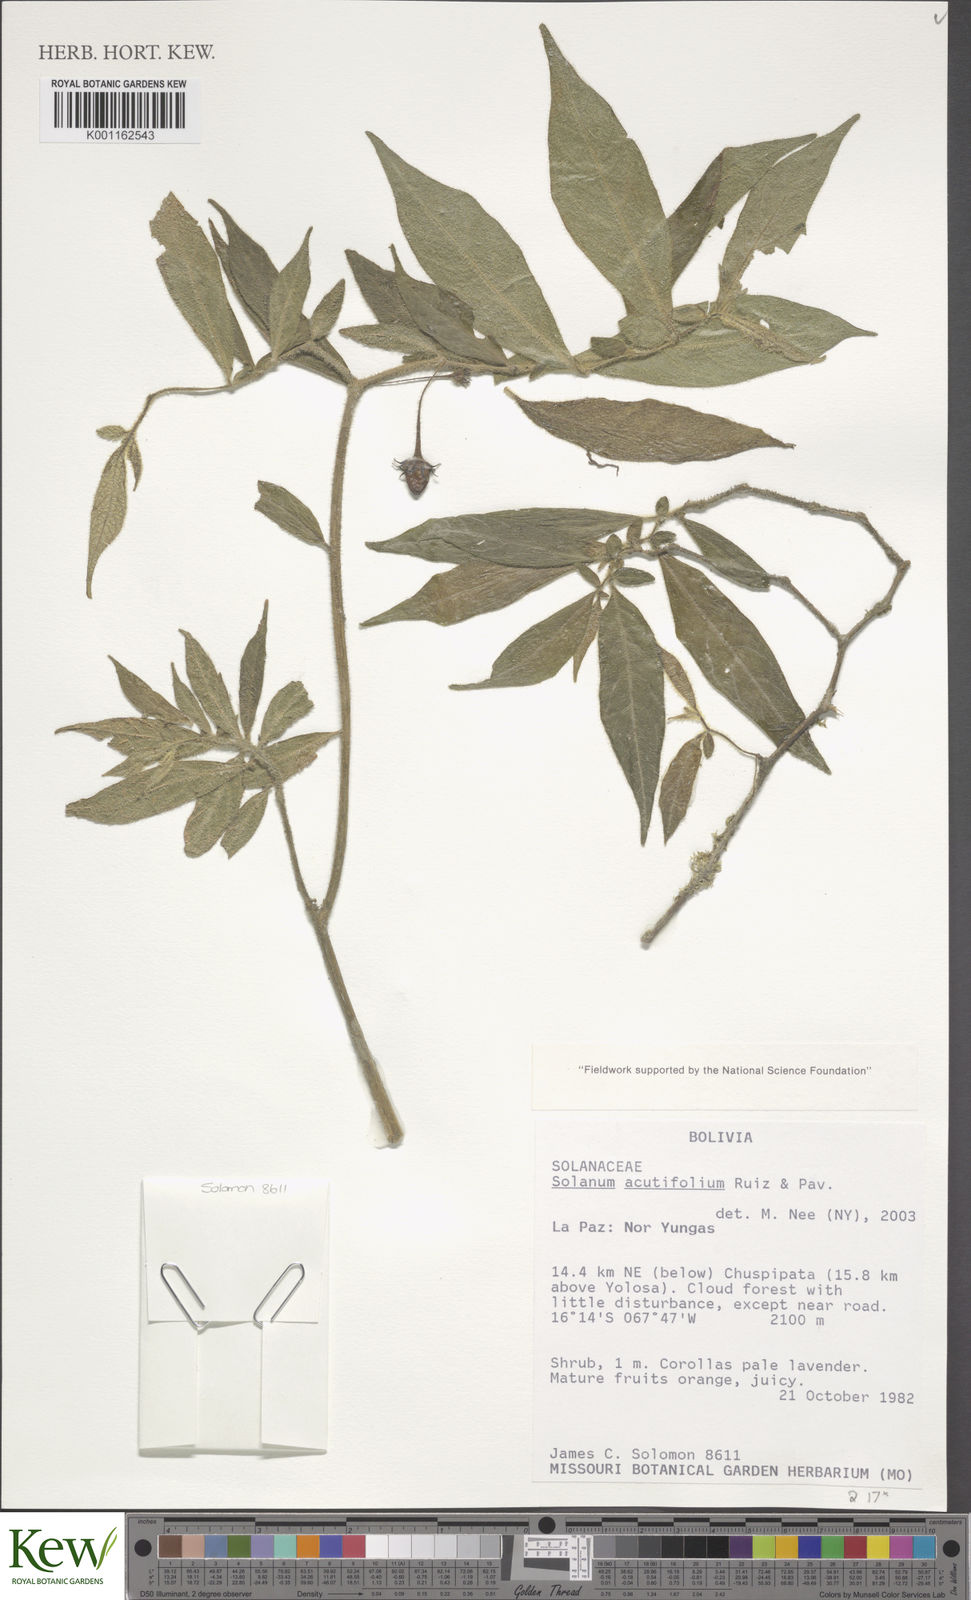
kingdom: Plantae
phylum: Tracheophyta
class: Magnoliopsida
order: Solanales
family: Solanaceae
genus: Lycianthes
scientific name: Lycianthes acutifolia
